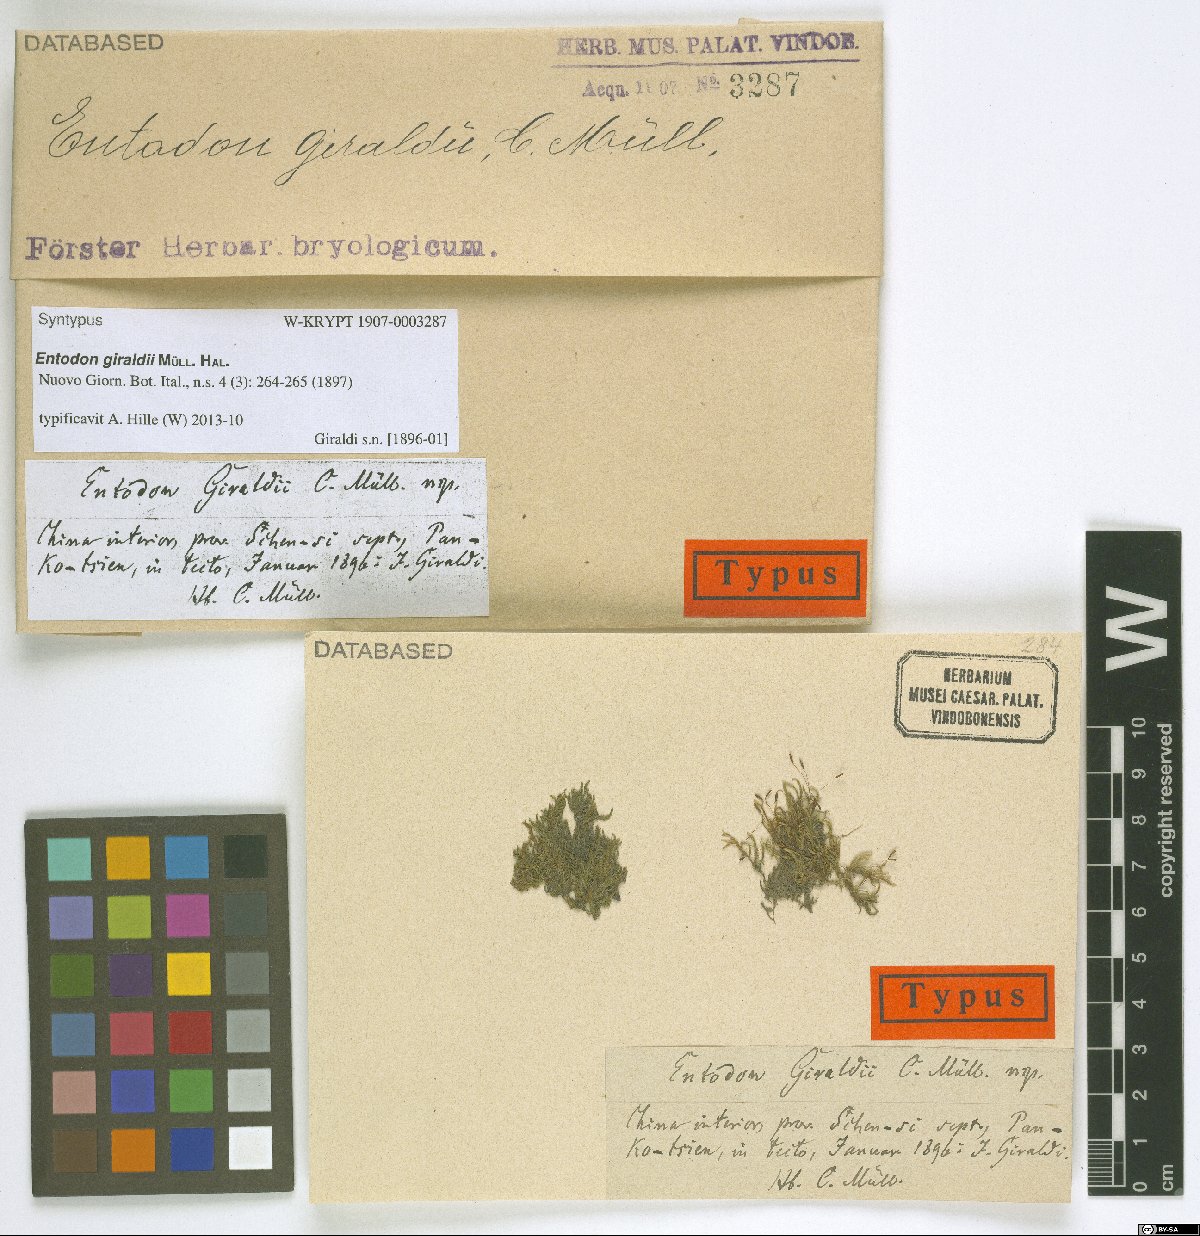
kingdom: Plantae
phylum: Bryophyta
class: Bryopsida
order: Hypnales
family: Entodontaceae
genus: Entodon
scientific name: Entodon giraldii
